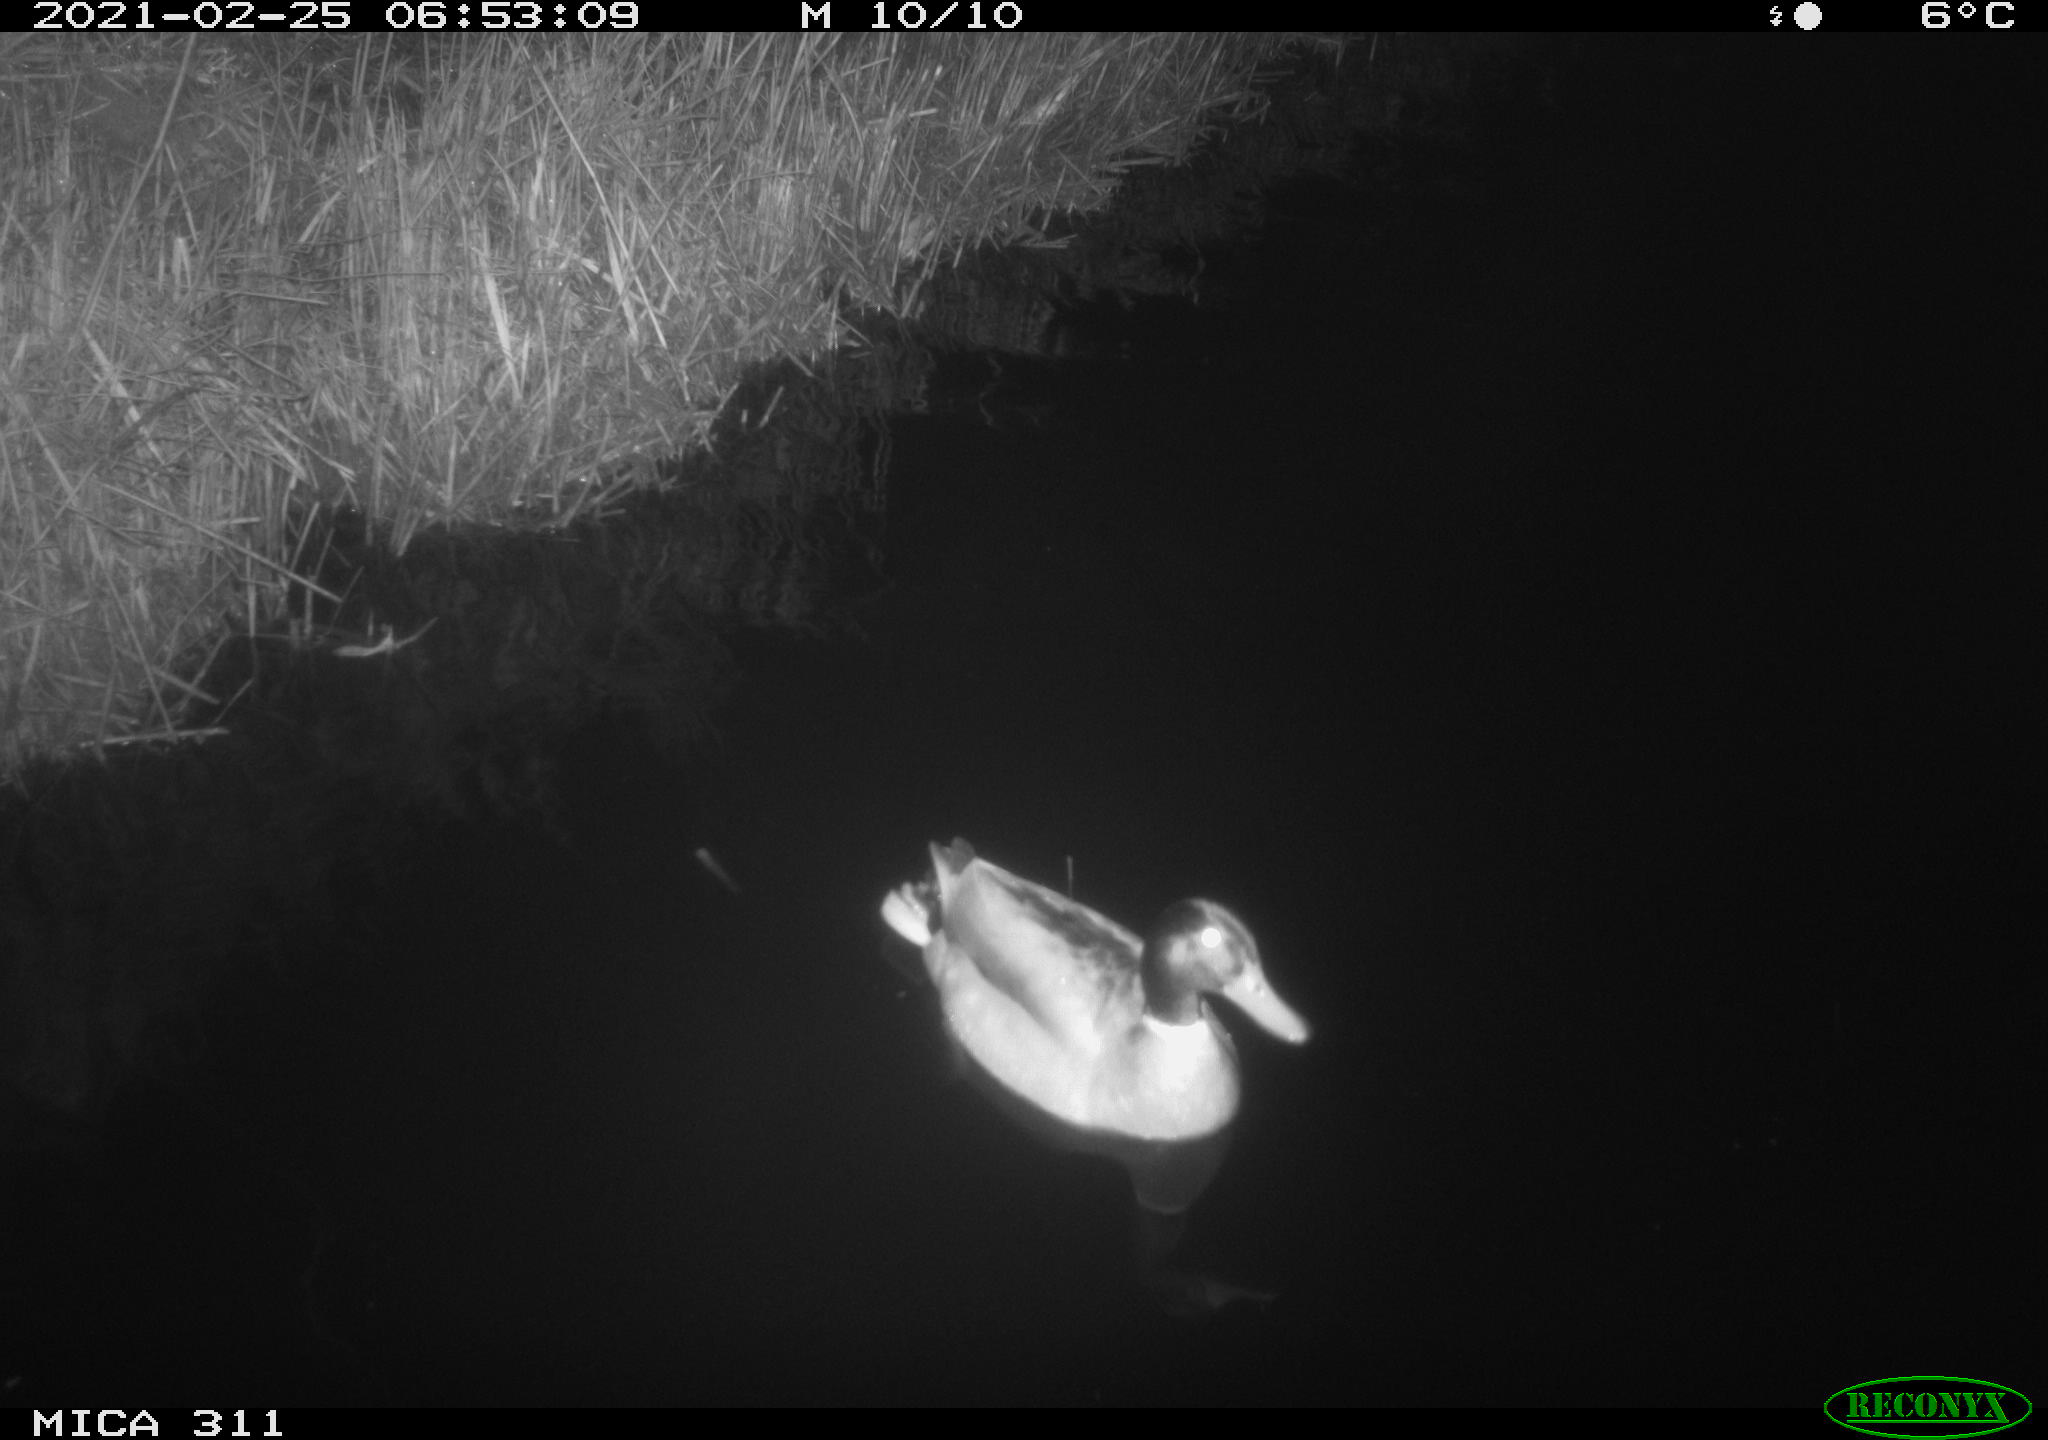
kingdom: Animalia
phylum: Chordata
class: Aves
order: Anseriformes
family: Anatidae
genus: Anas
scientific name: Anas
